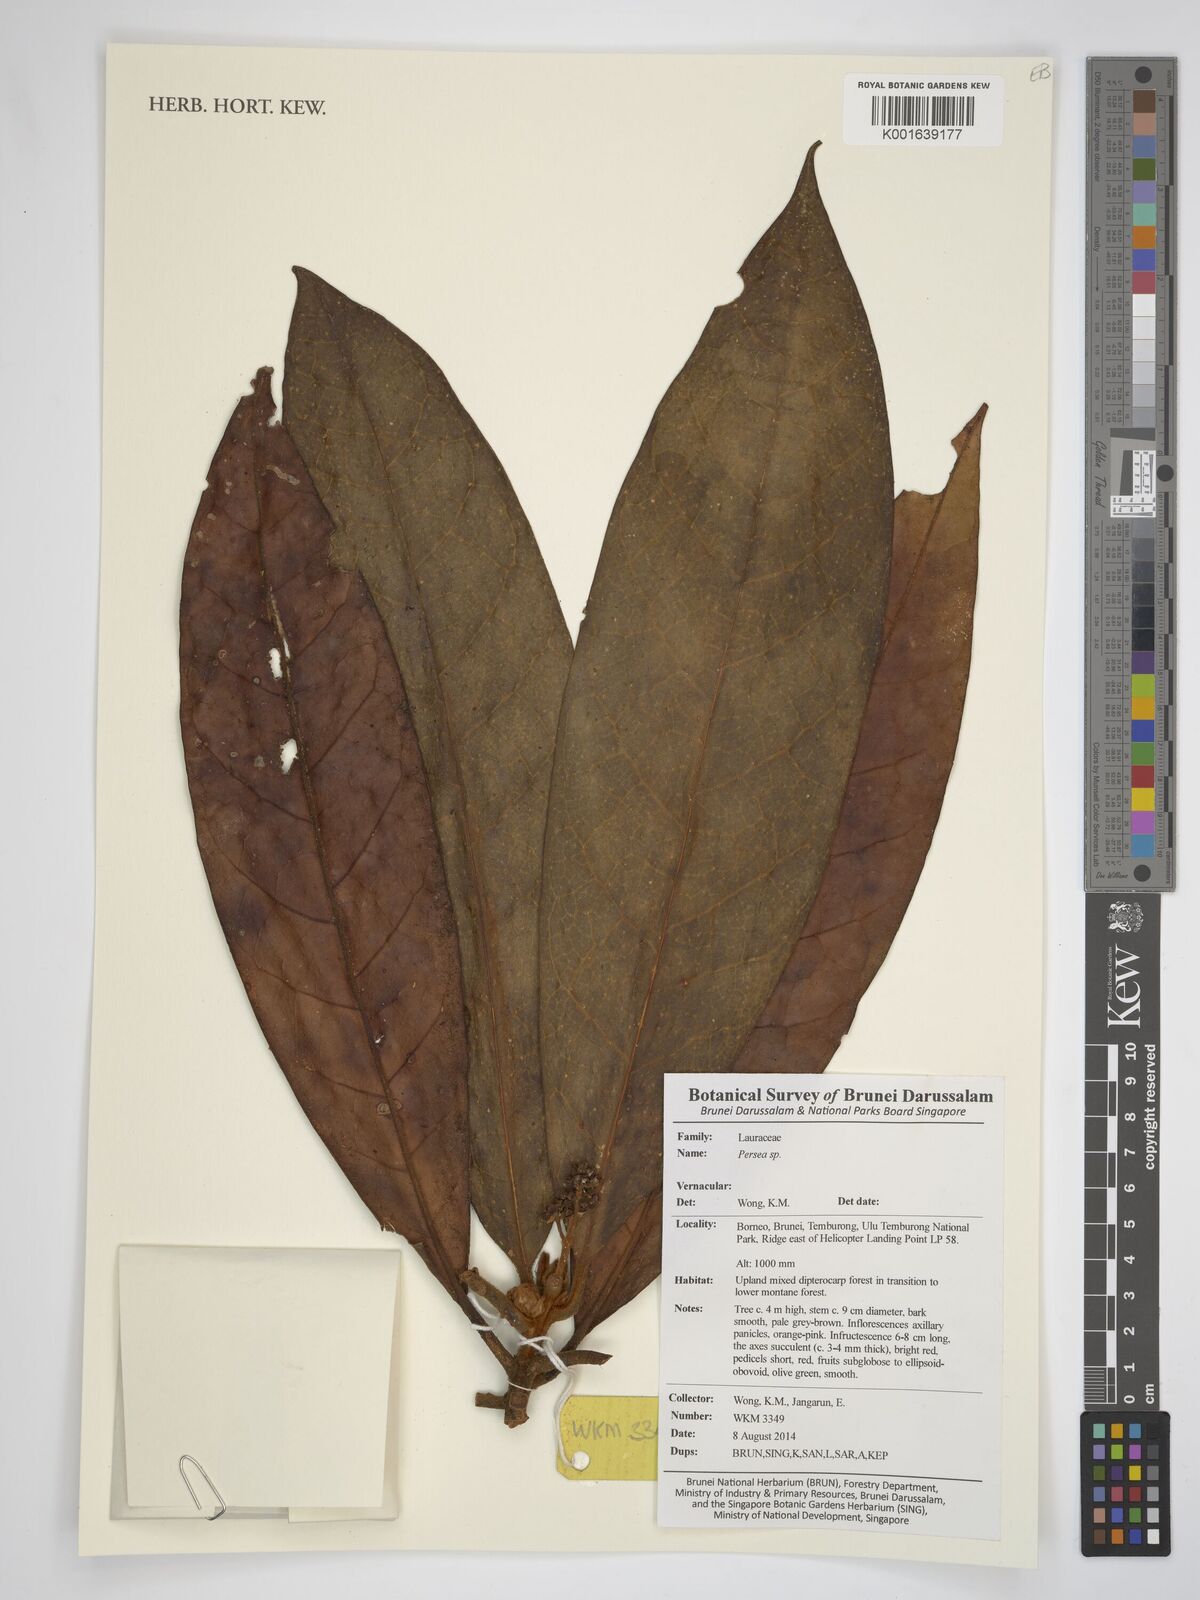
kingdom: Plantae
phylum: Tracheophyta
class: Magnoliopsida
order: Laurales
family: Lauraceae
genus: Persea
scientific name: Persea
